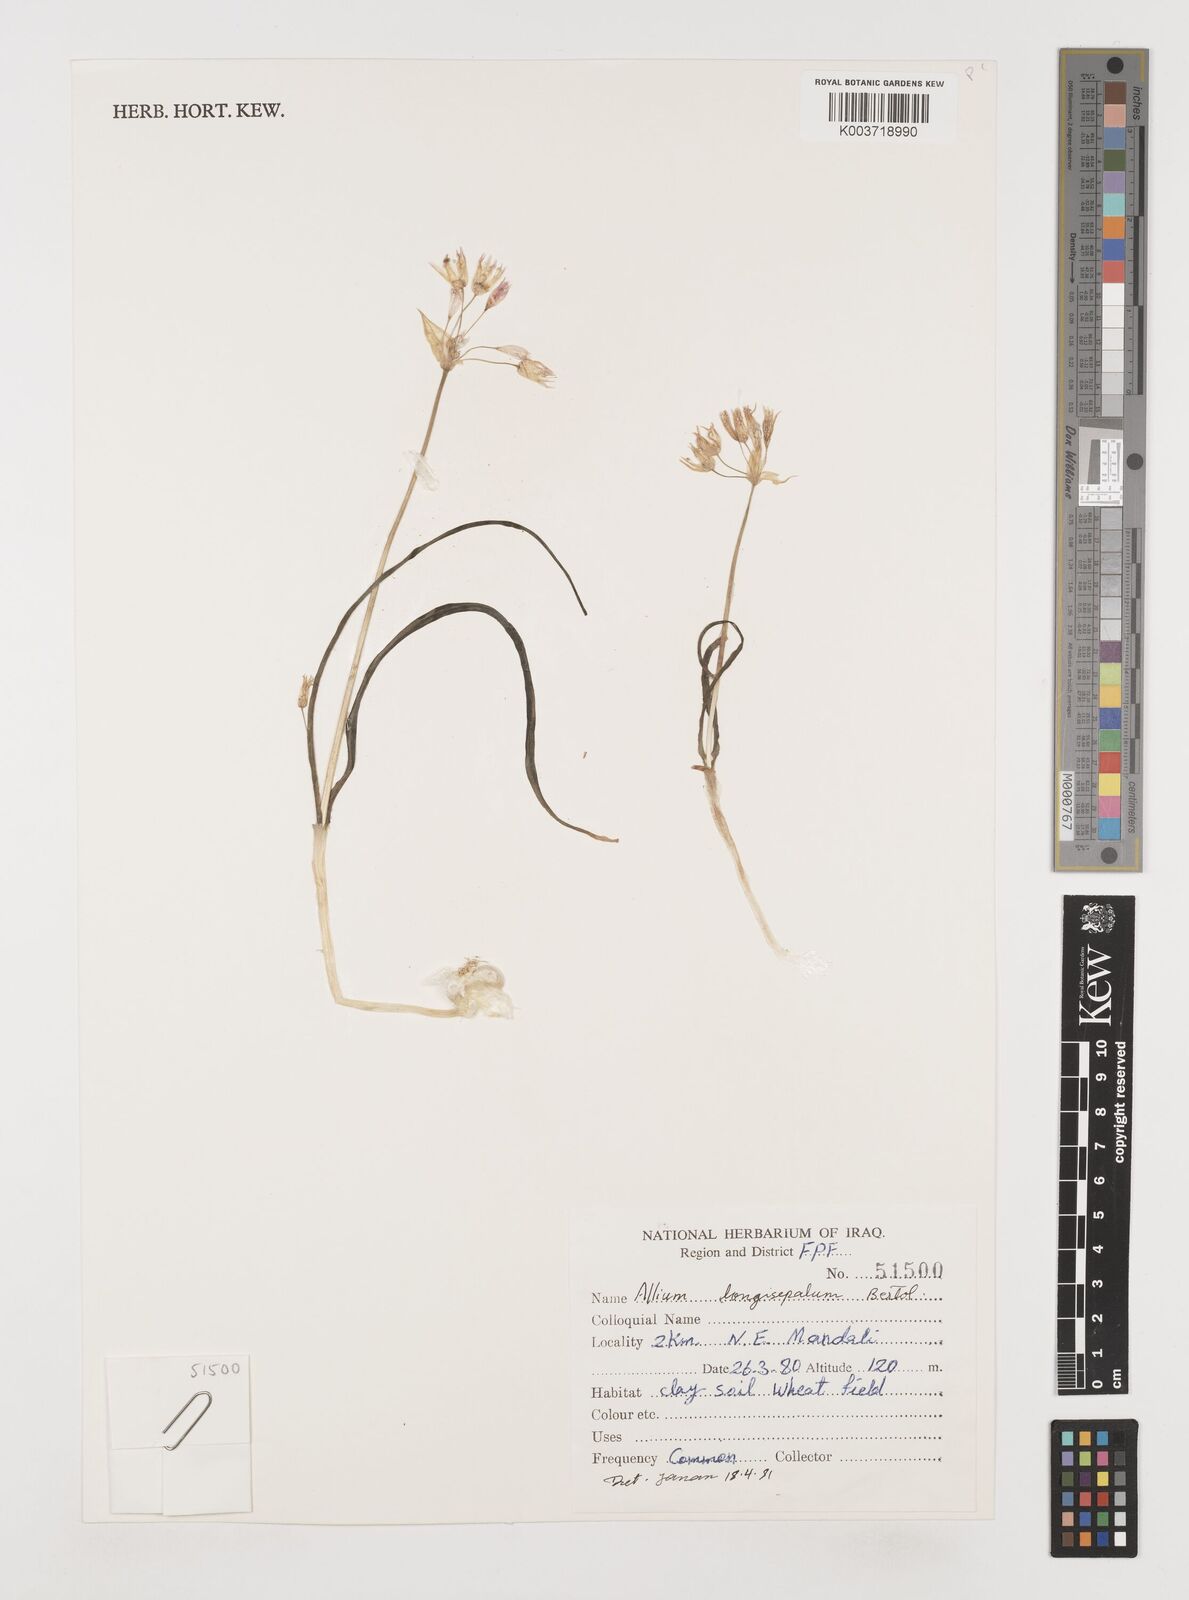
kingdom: Plantae
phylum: Tracheophyta
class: Liliopsida
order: Asparagales
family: Amaryllidaceae
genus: Allium
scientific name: Allium longisepalum
